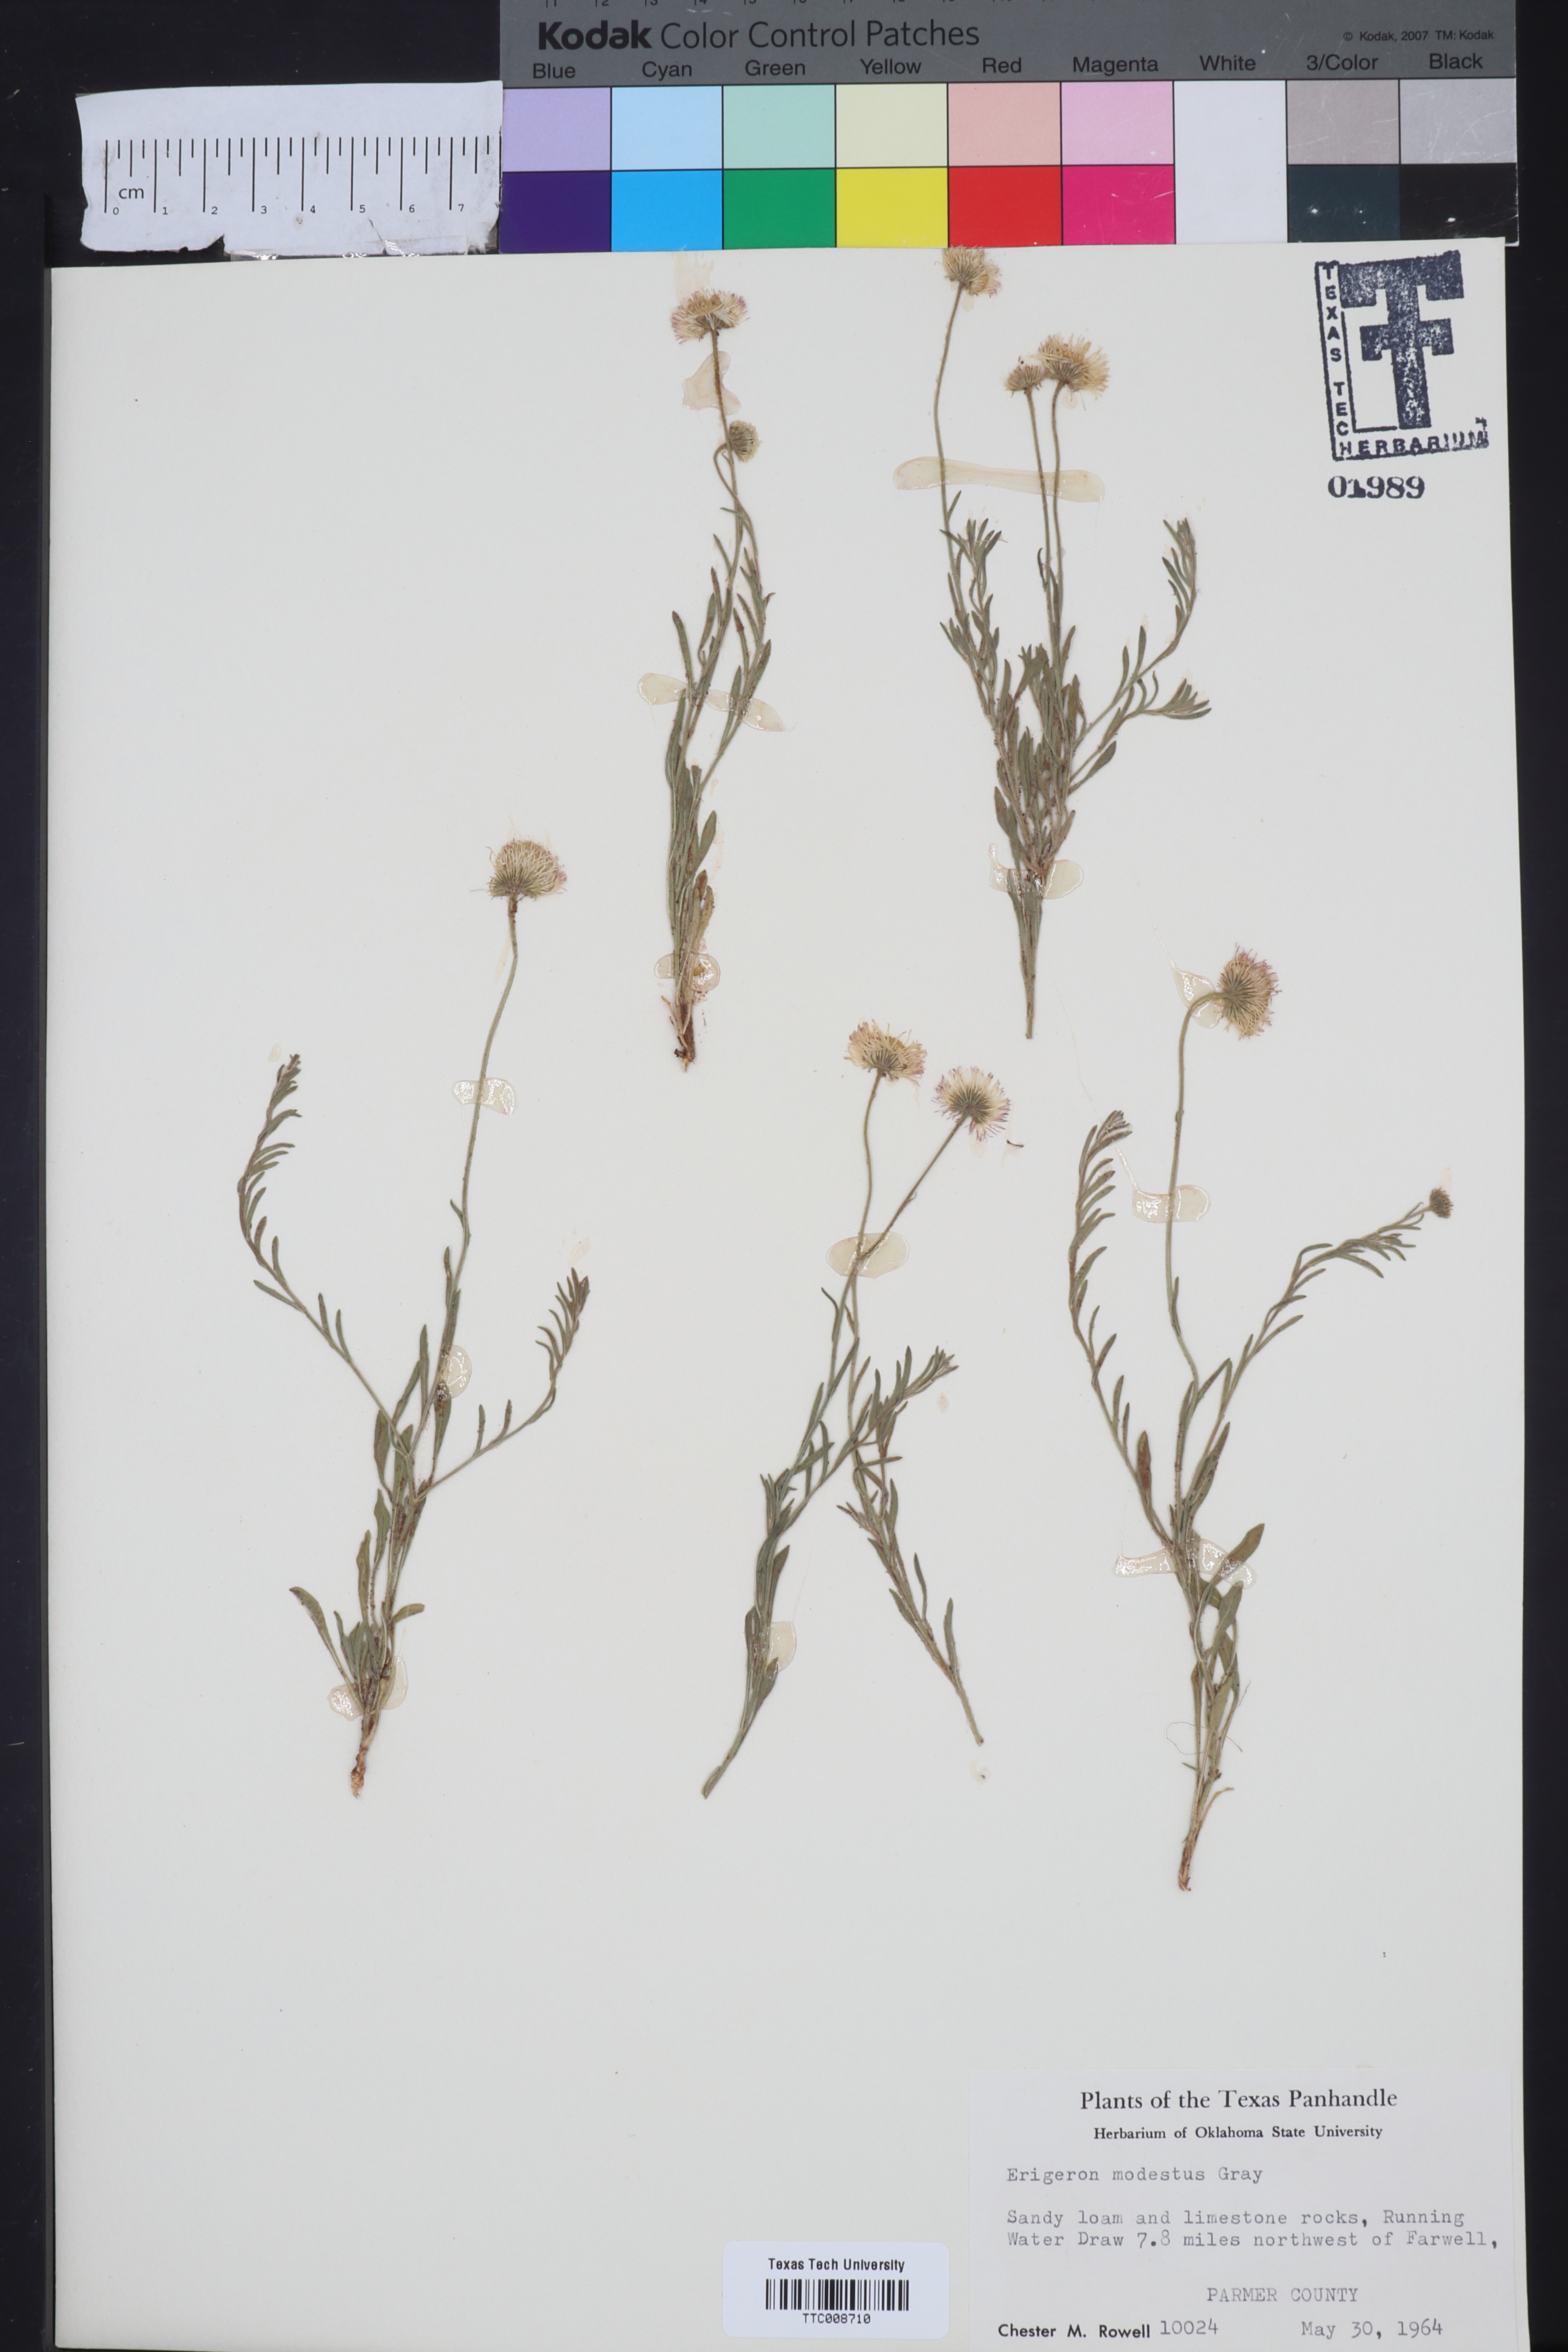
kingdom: Plantae
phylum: Tracheophyta
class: Magnoliopsida
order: Asterales
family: Asteraceae
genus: Erigeron
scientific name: Erigeron modestus
